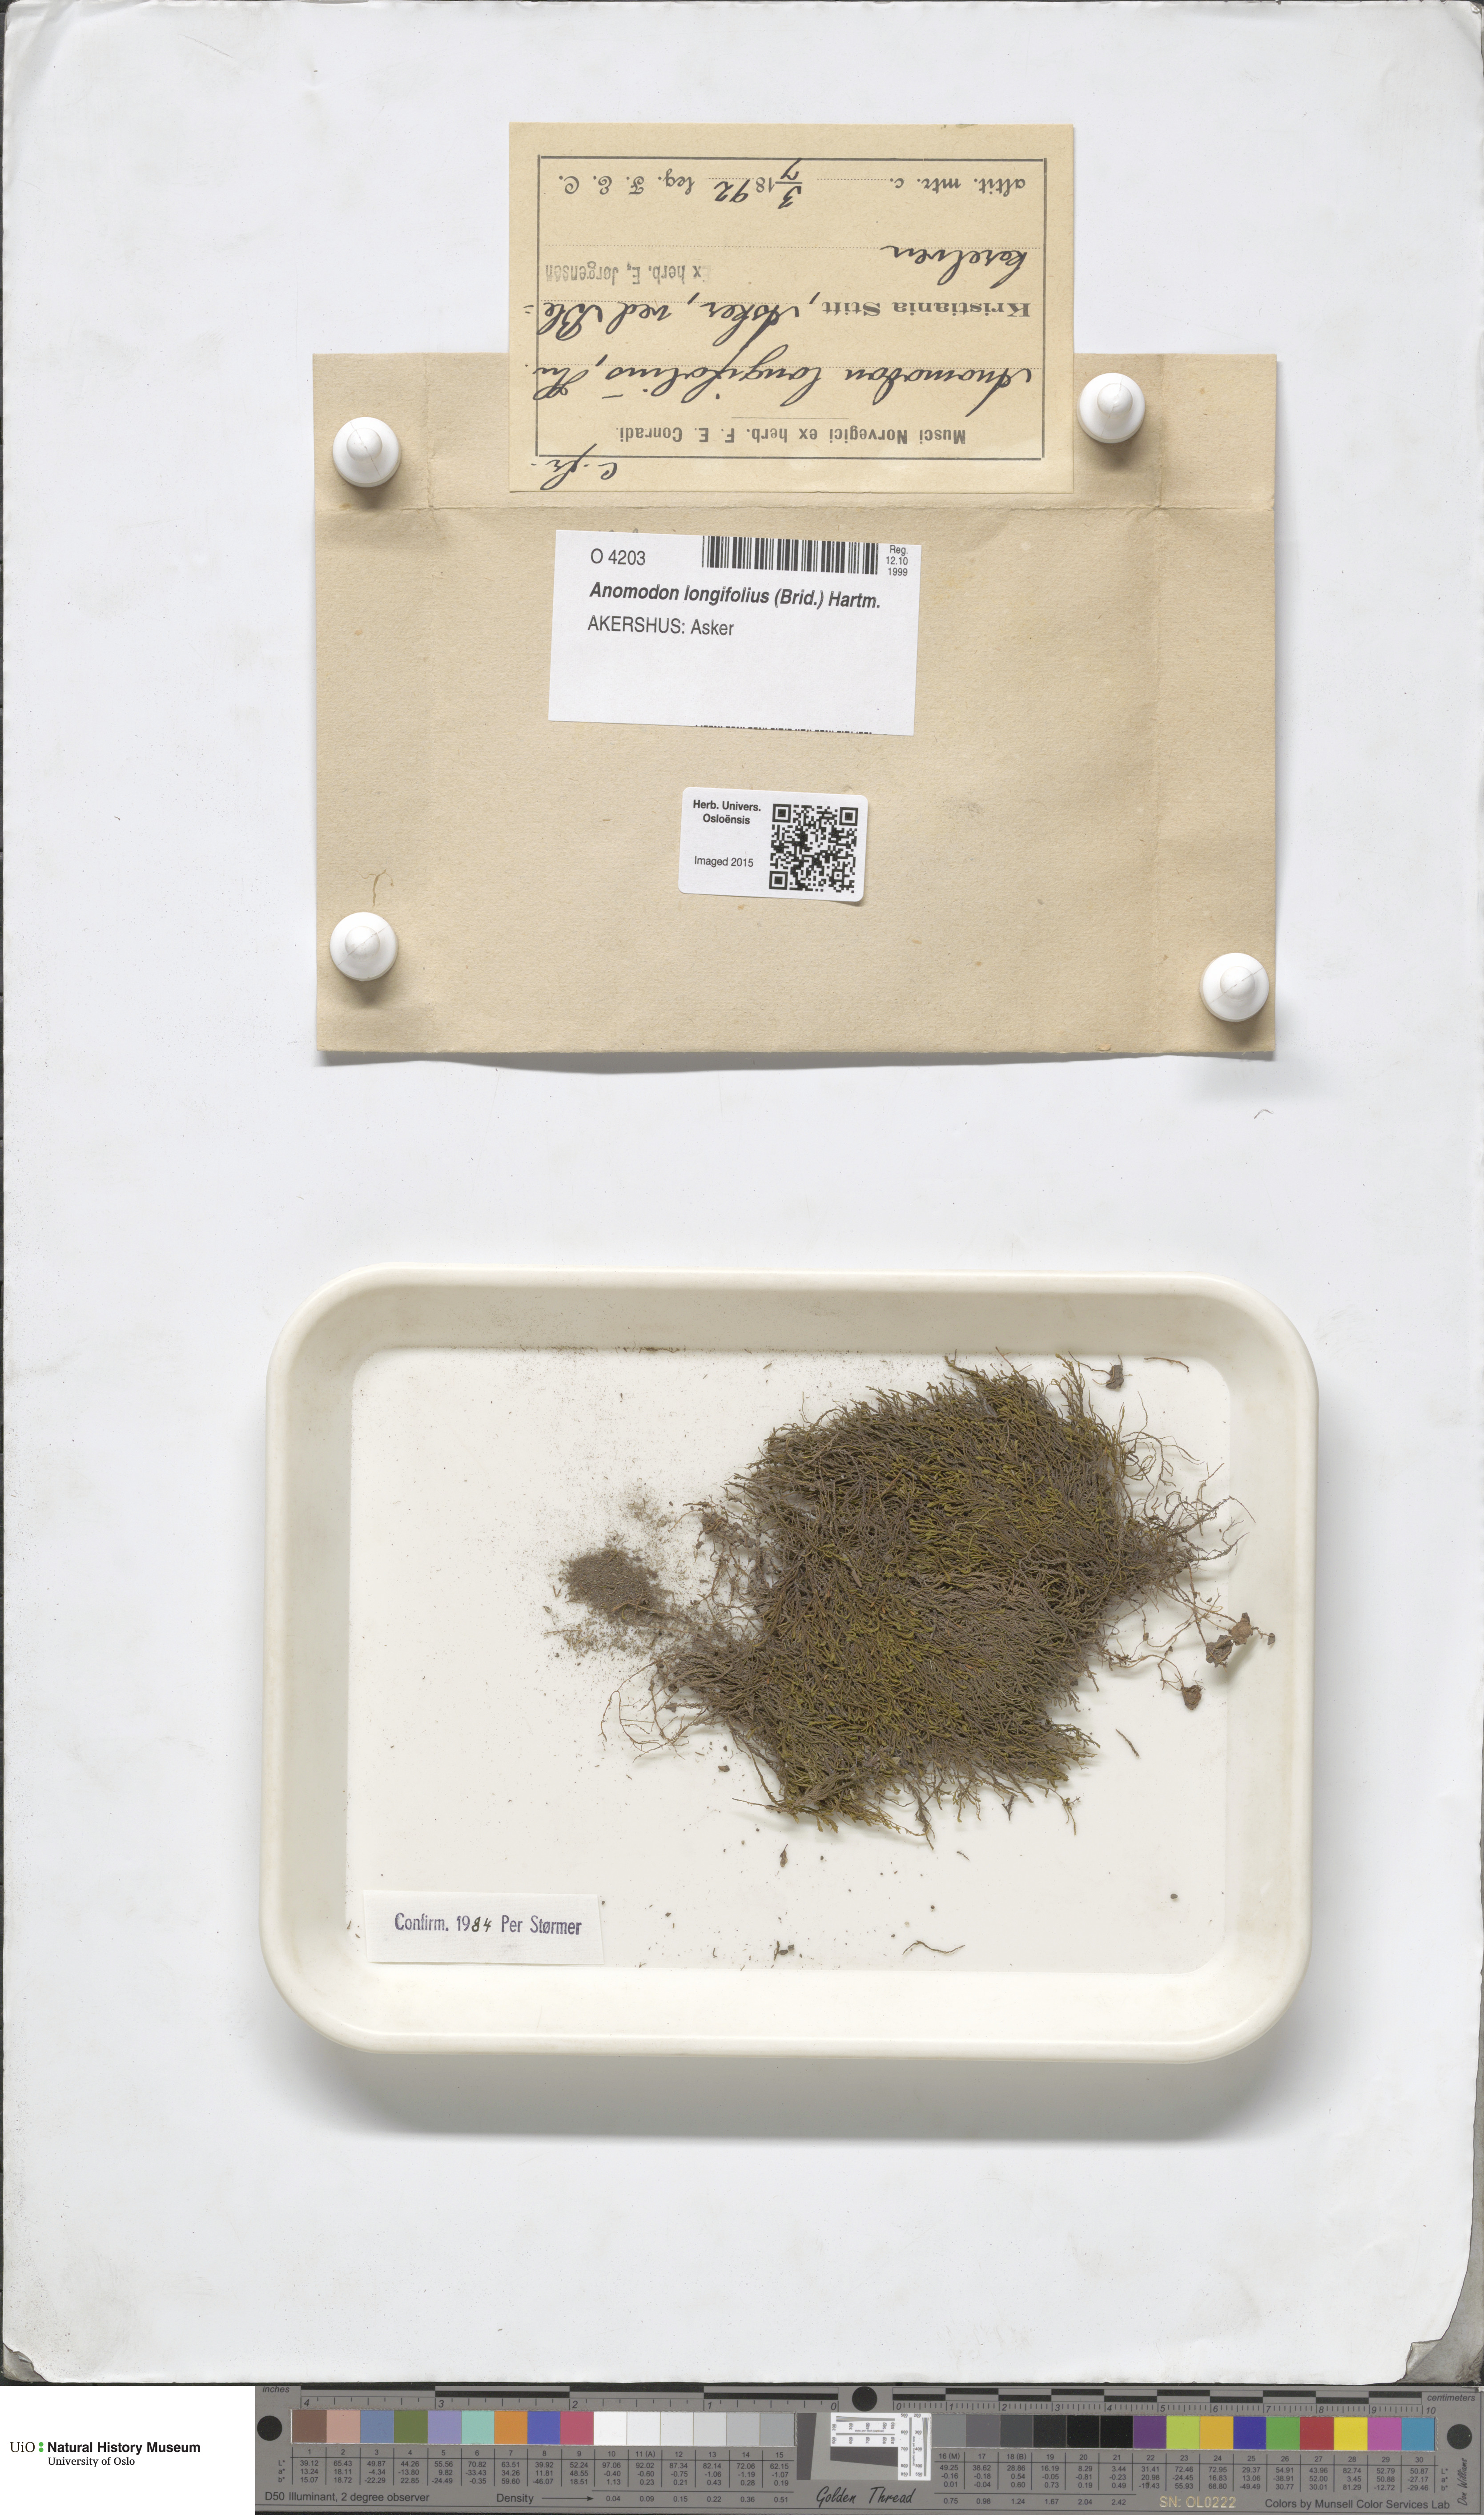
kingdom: Plantae
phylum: Bryophyta
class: Bryopsida
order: Hypnales
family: Anomodontaceae
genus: Anomodontella
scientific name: Anomodontella longifolia
